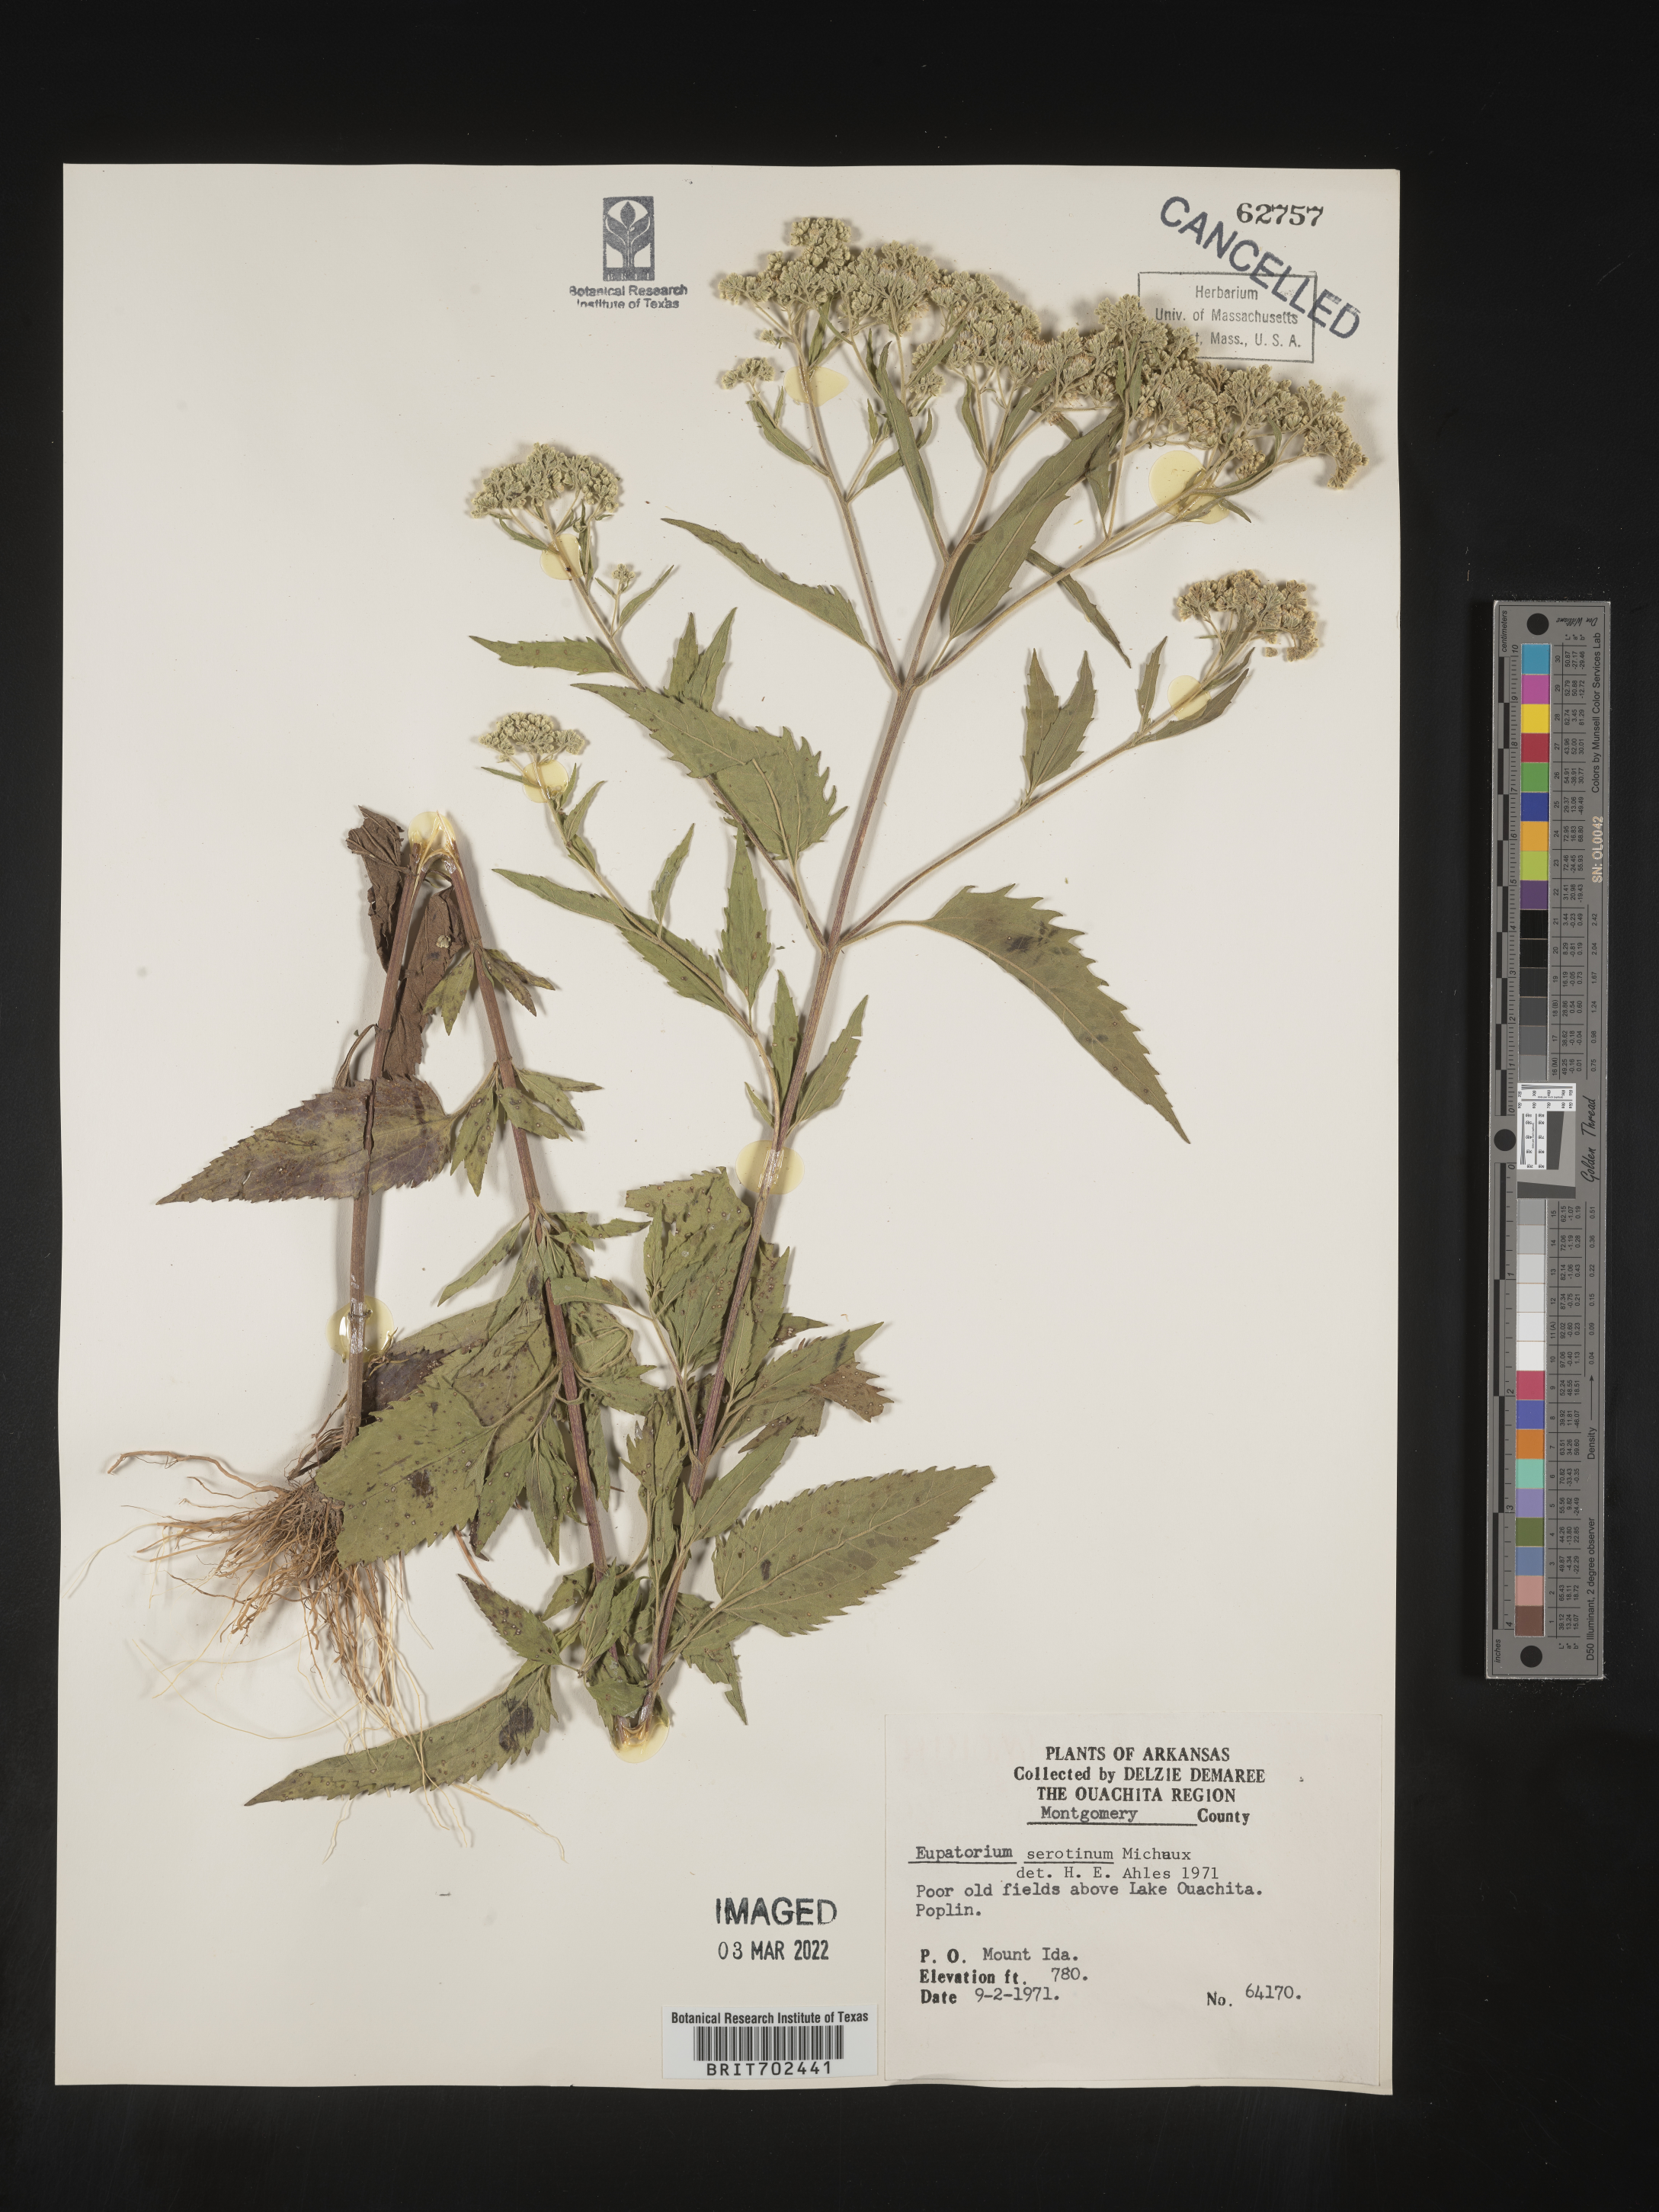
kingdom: Plantae
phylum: Tracheophyta
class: Magnoliopsida
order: Asterales
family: Asteraceae
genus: Eupatorium
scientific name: Eupatorium serotinum
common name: Late boneset
